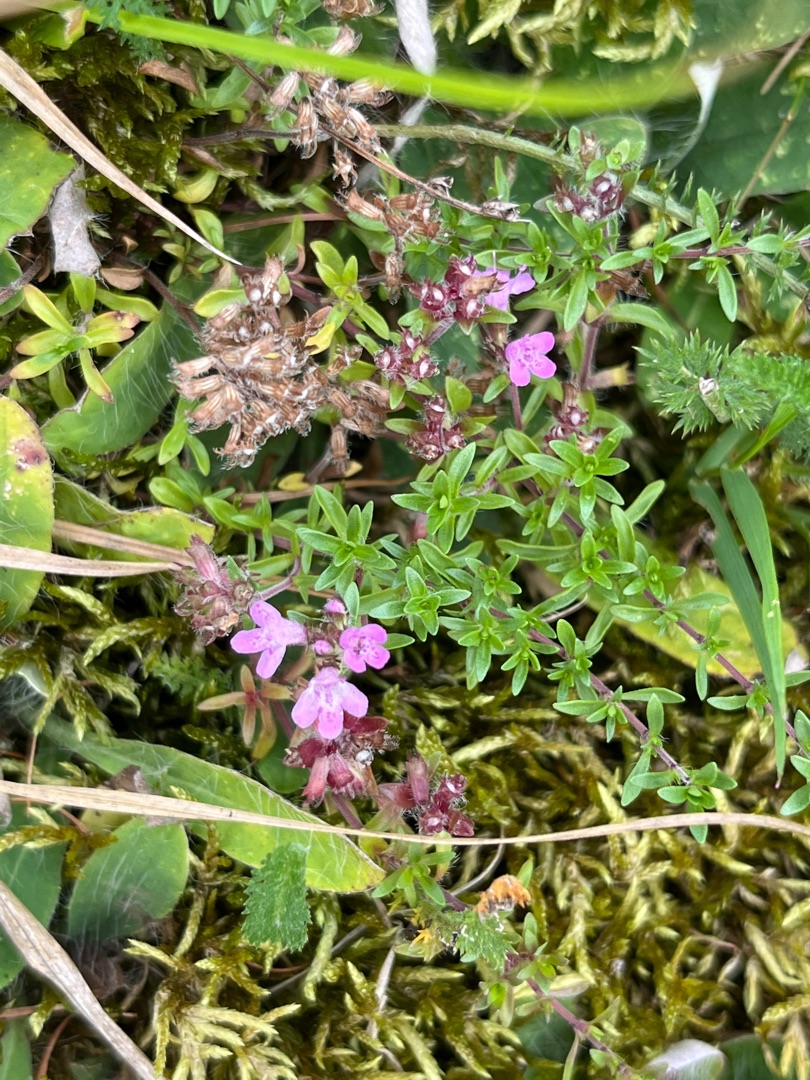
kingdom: Plantae
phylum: Tracheophyta
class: Magnoliopsida
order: Lamiales
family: Lamiaceae
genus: Thymus
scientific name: Thymus serpyllum
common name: Smalbladet timian
